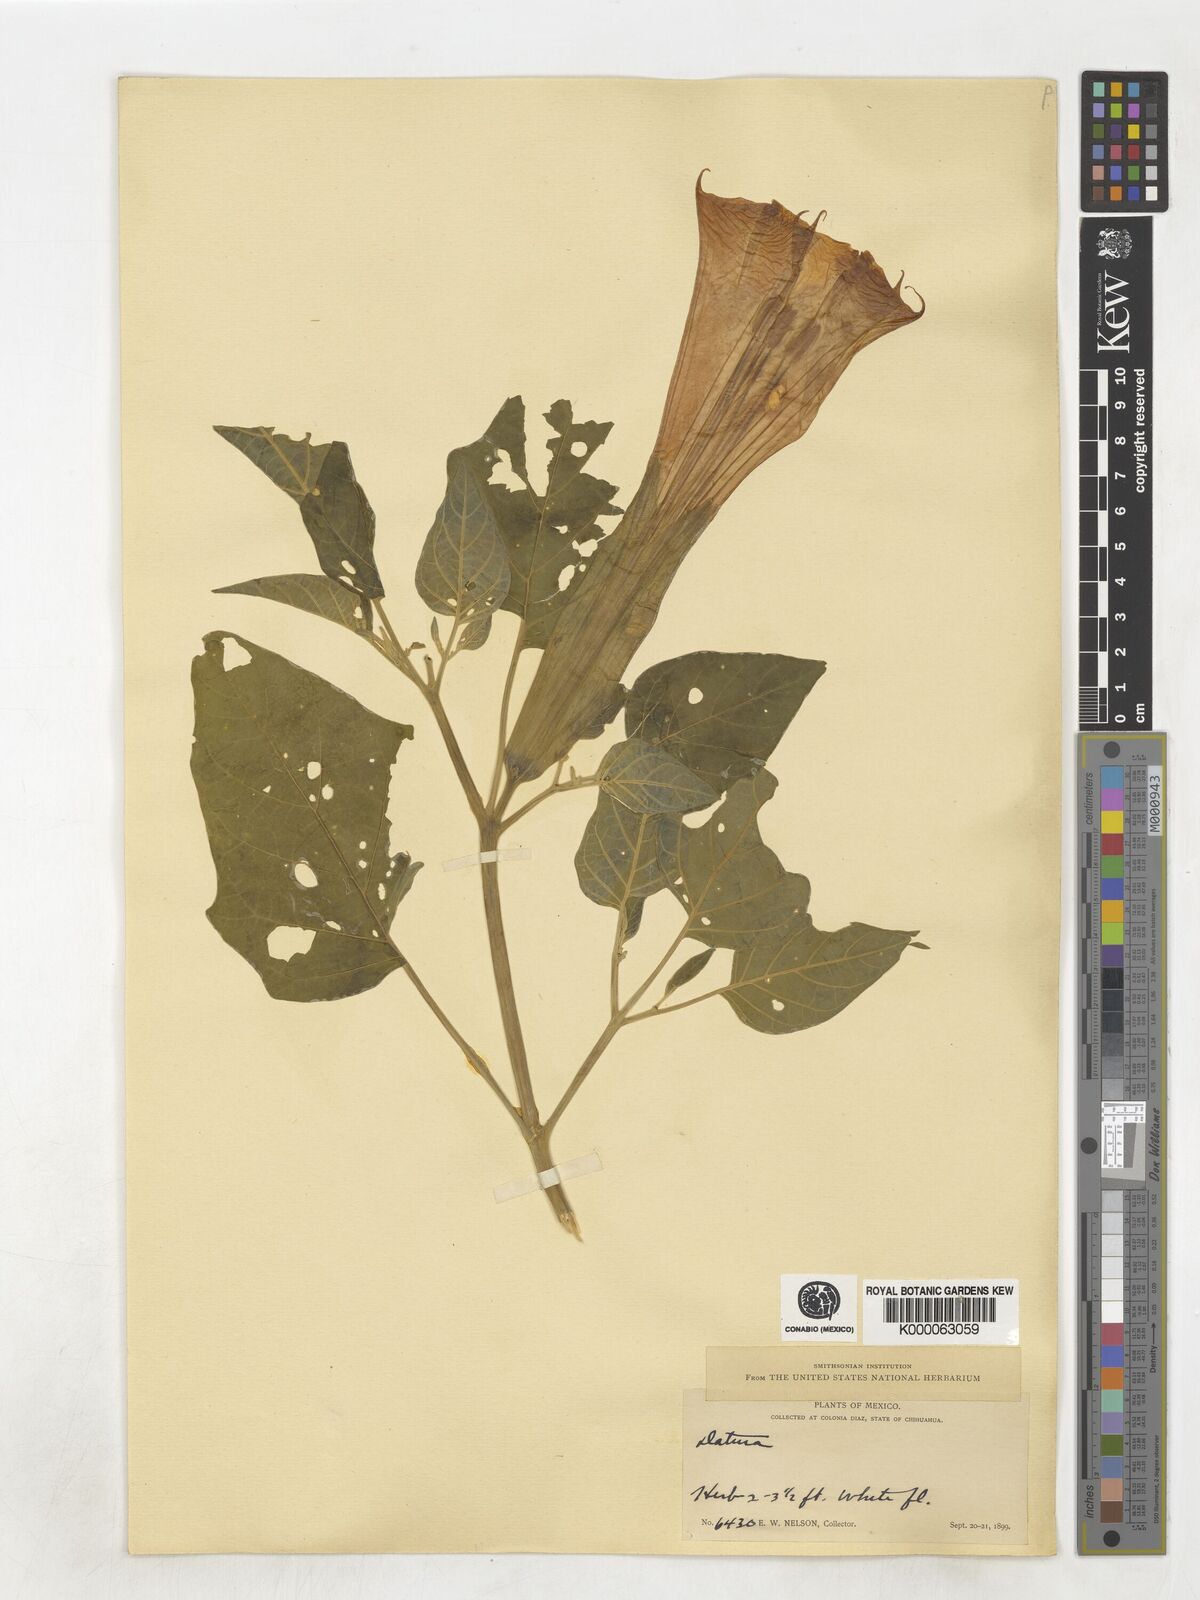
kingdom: Plantae
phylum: Tracheophyta
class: Magnoliopsida
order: Solanales
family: Solanaceae
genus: Datura
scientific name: Datura
